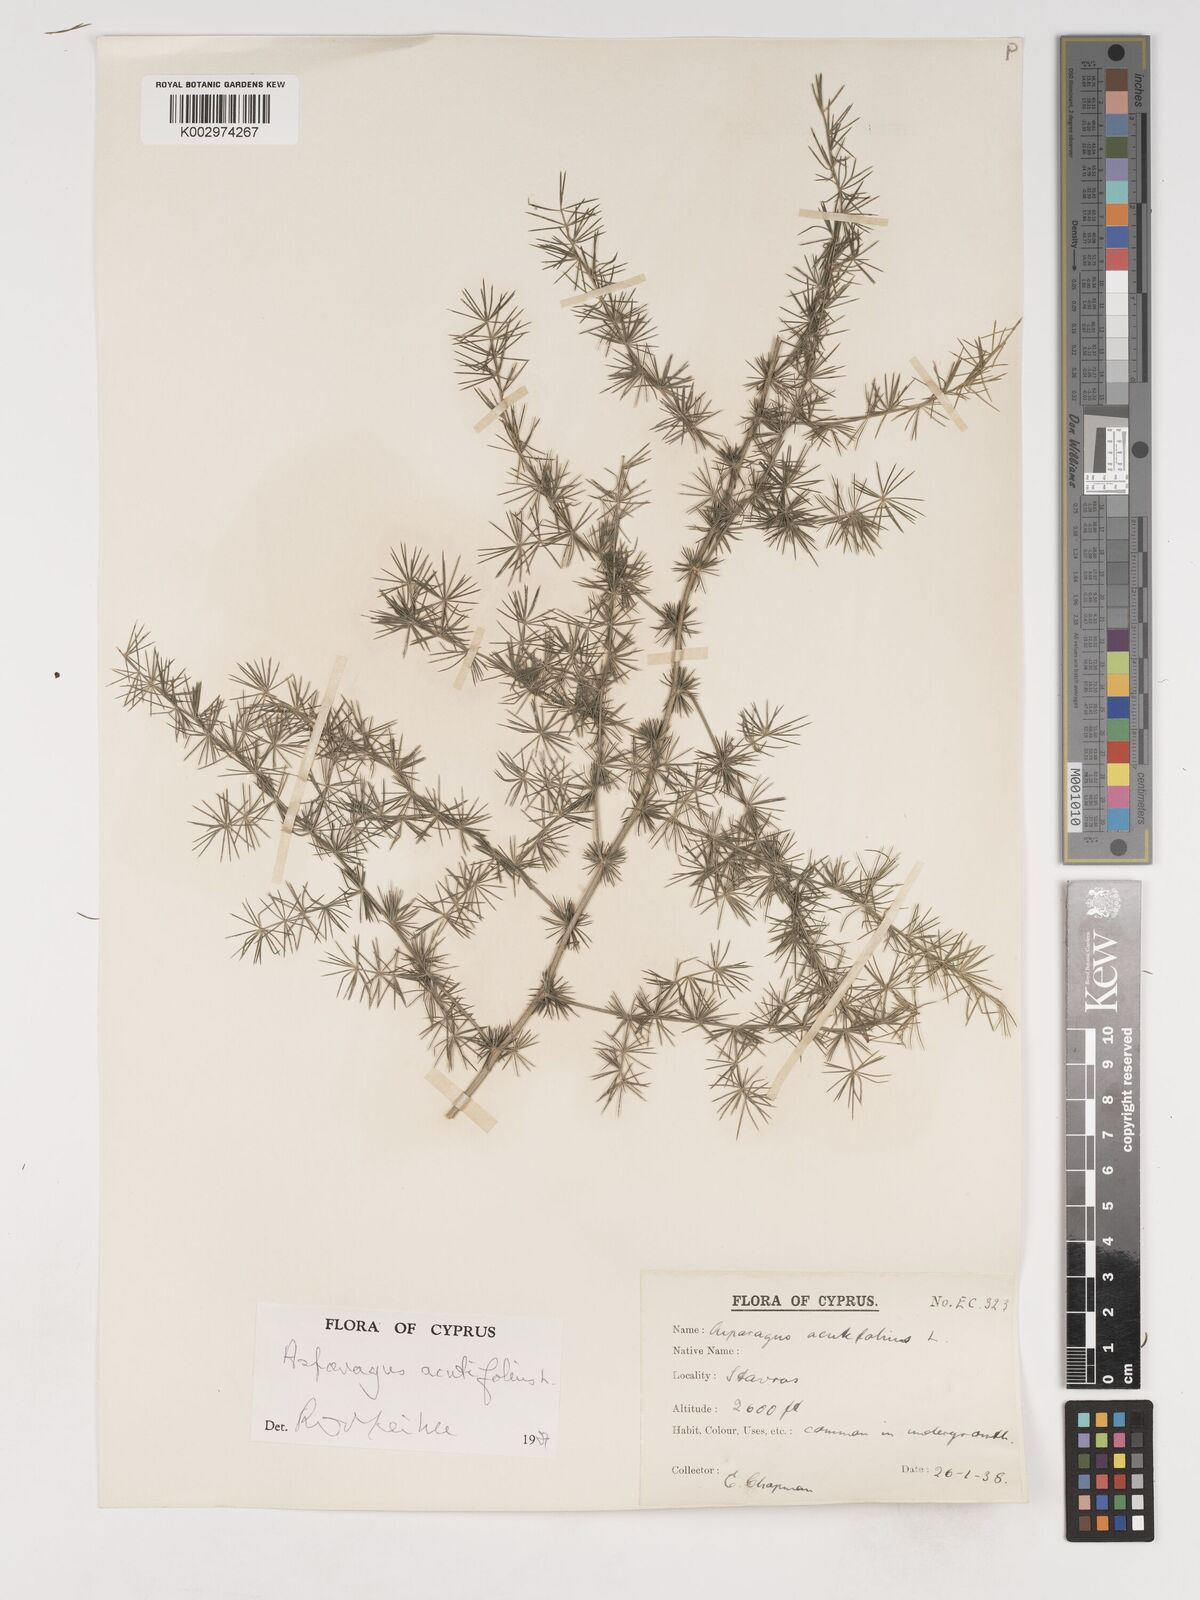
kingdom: Plantae
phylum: Tracheophyta
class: Liliopsida
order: Asparagales
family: Asparagaceae
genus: Asparagus
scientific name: Asparagus acutifolius
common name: Wild asparagus
